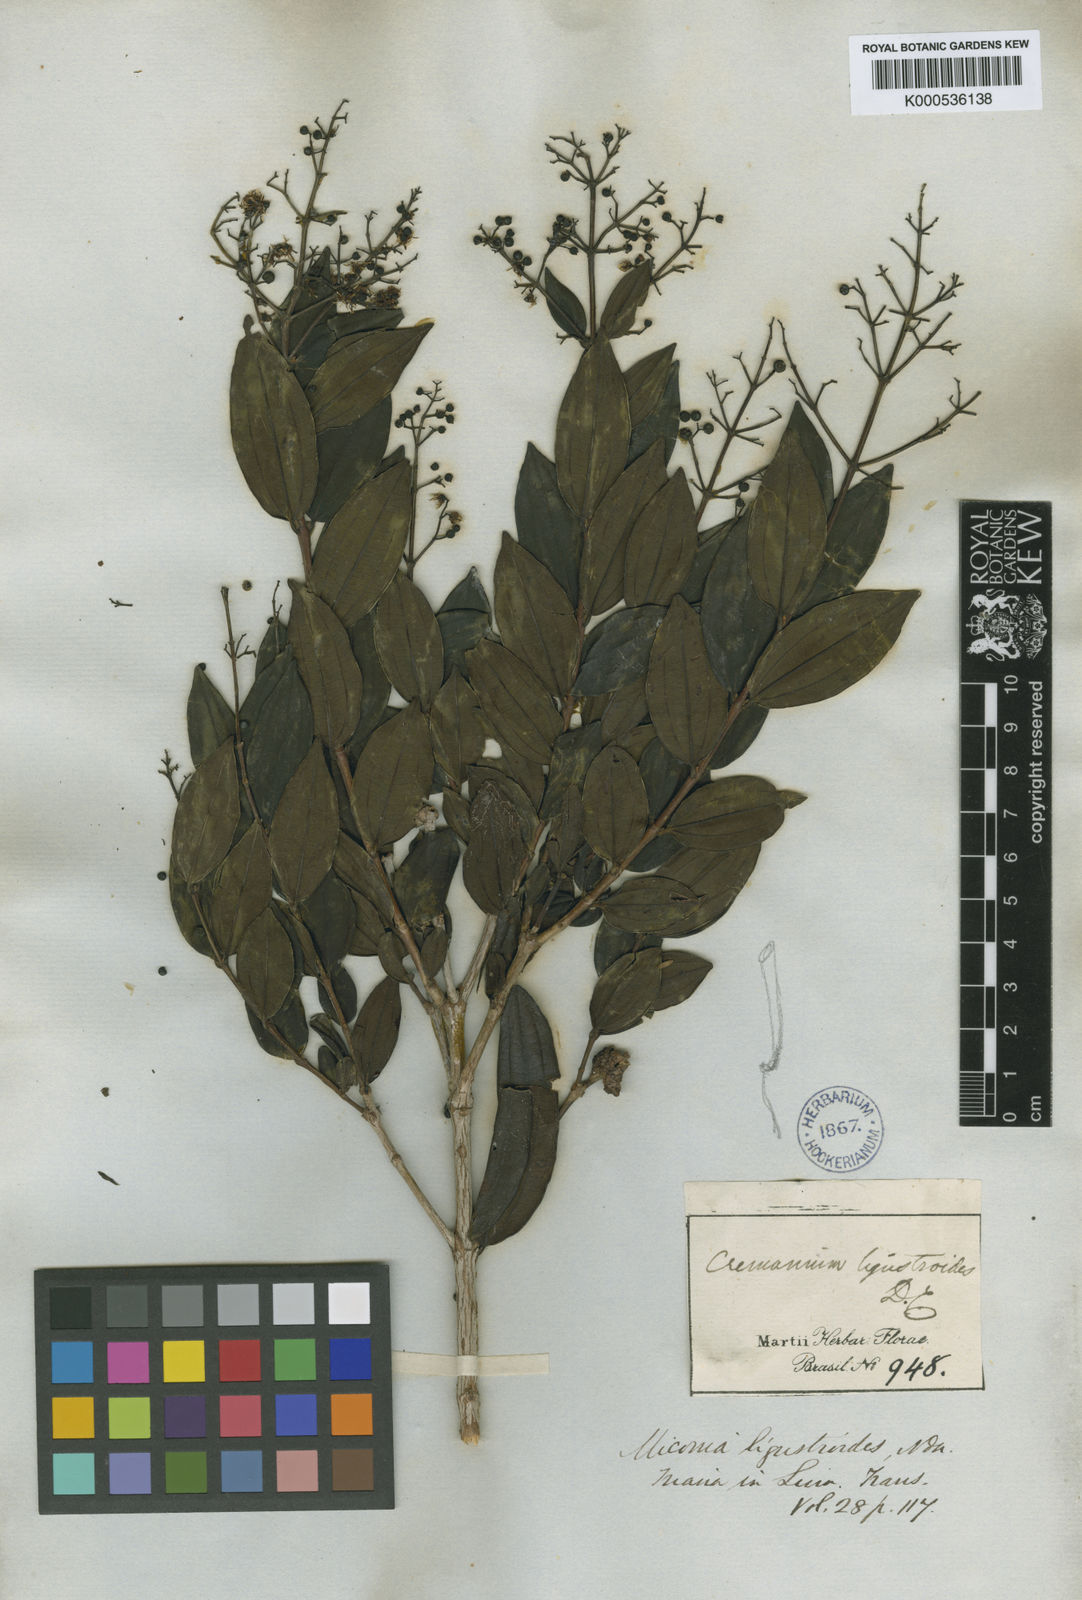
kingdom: Plantae
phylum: Tracheophyta
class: Magnoliopsida
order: Myrtales
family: Melastomataceae
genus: Miconia
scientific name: Miconia ligustroides
